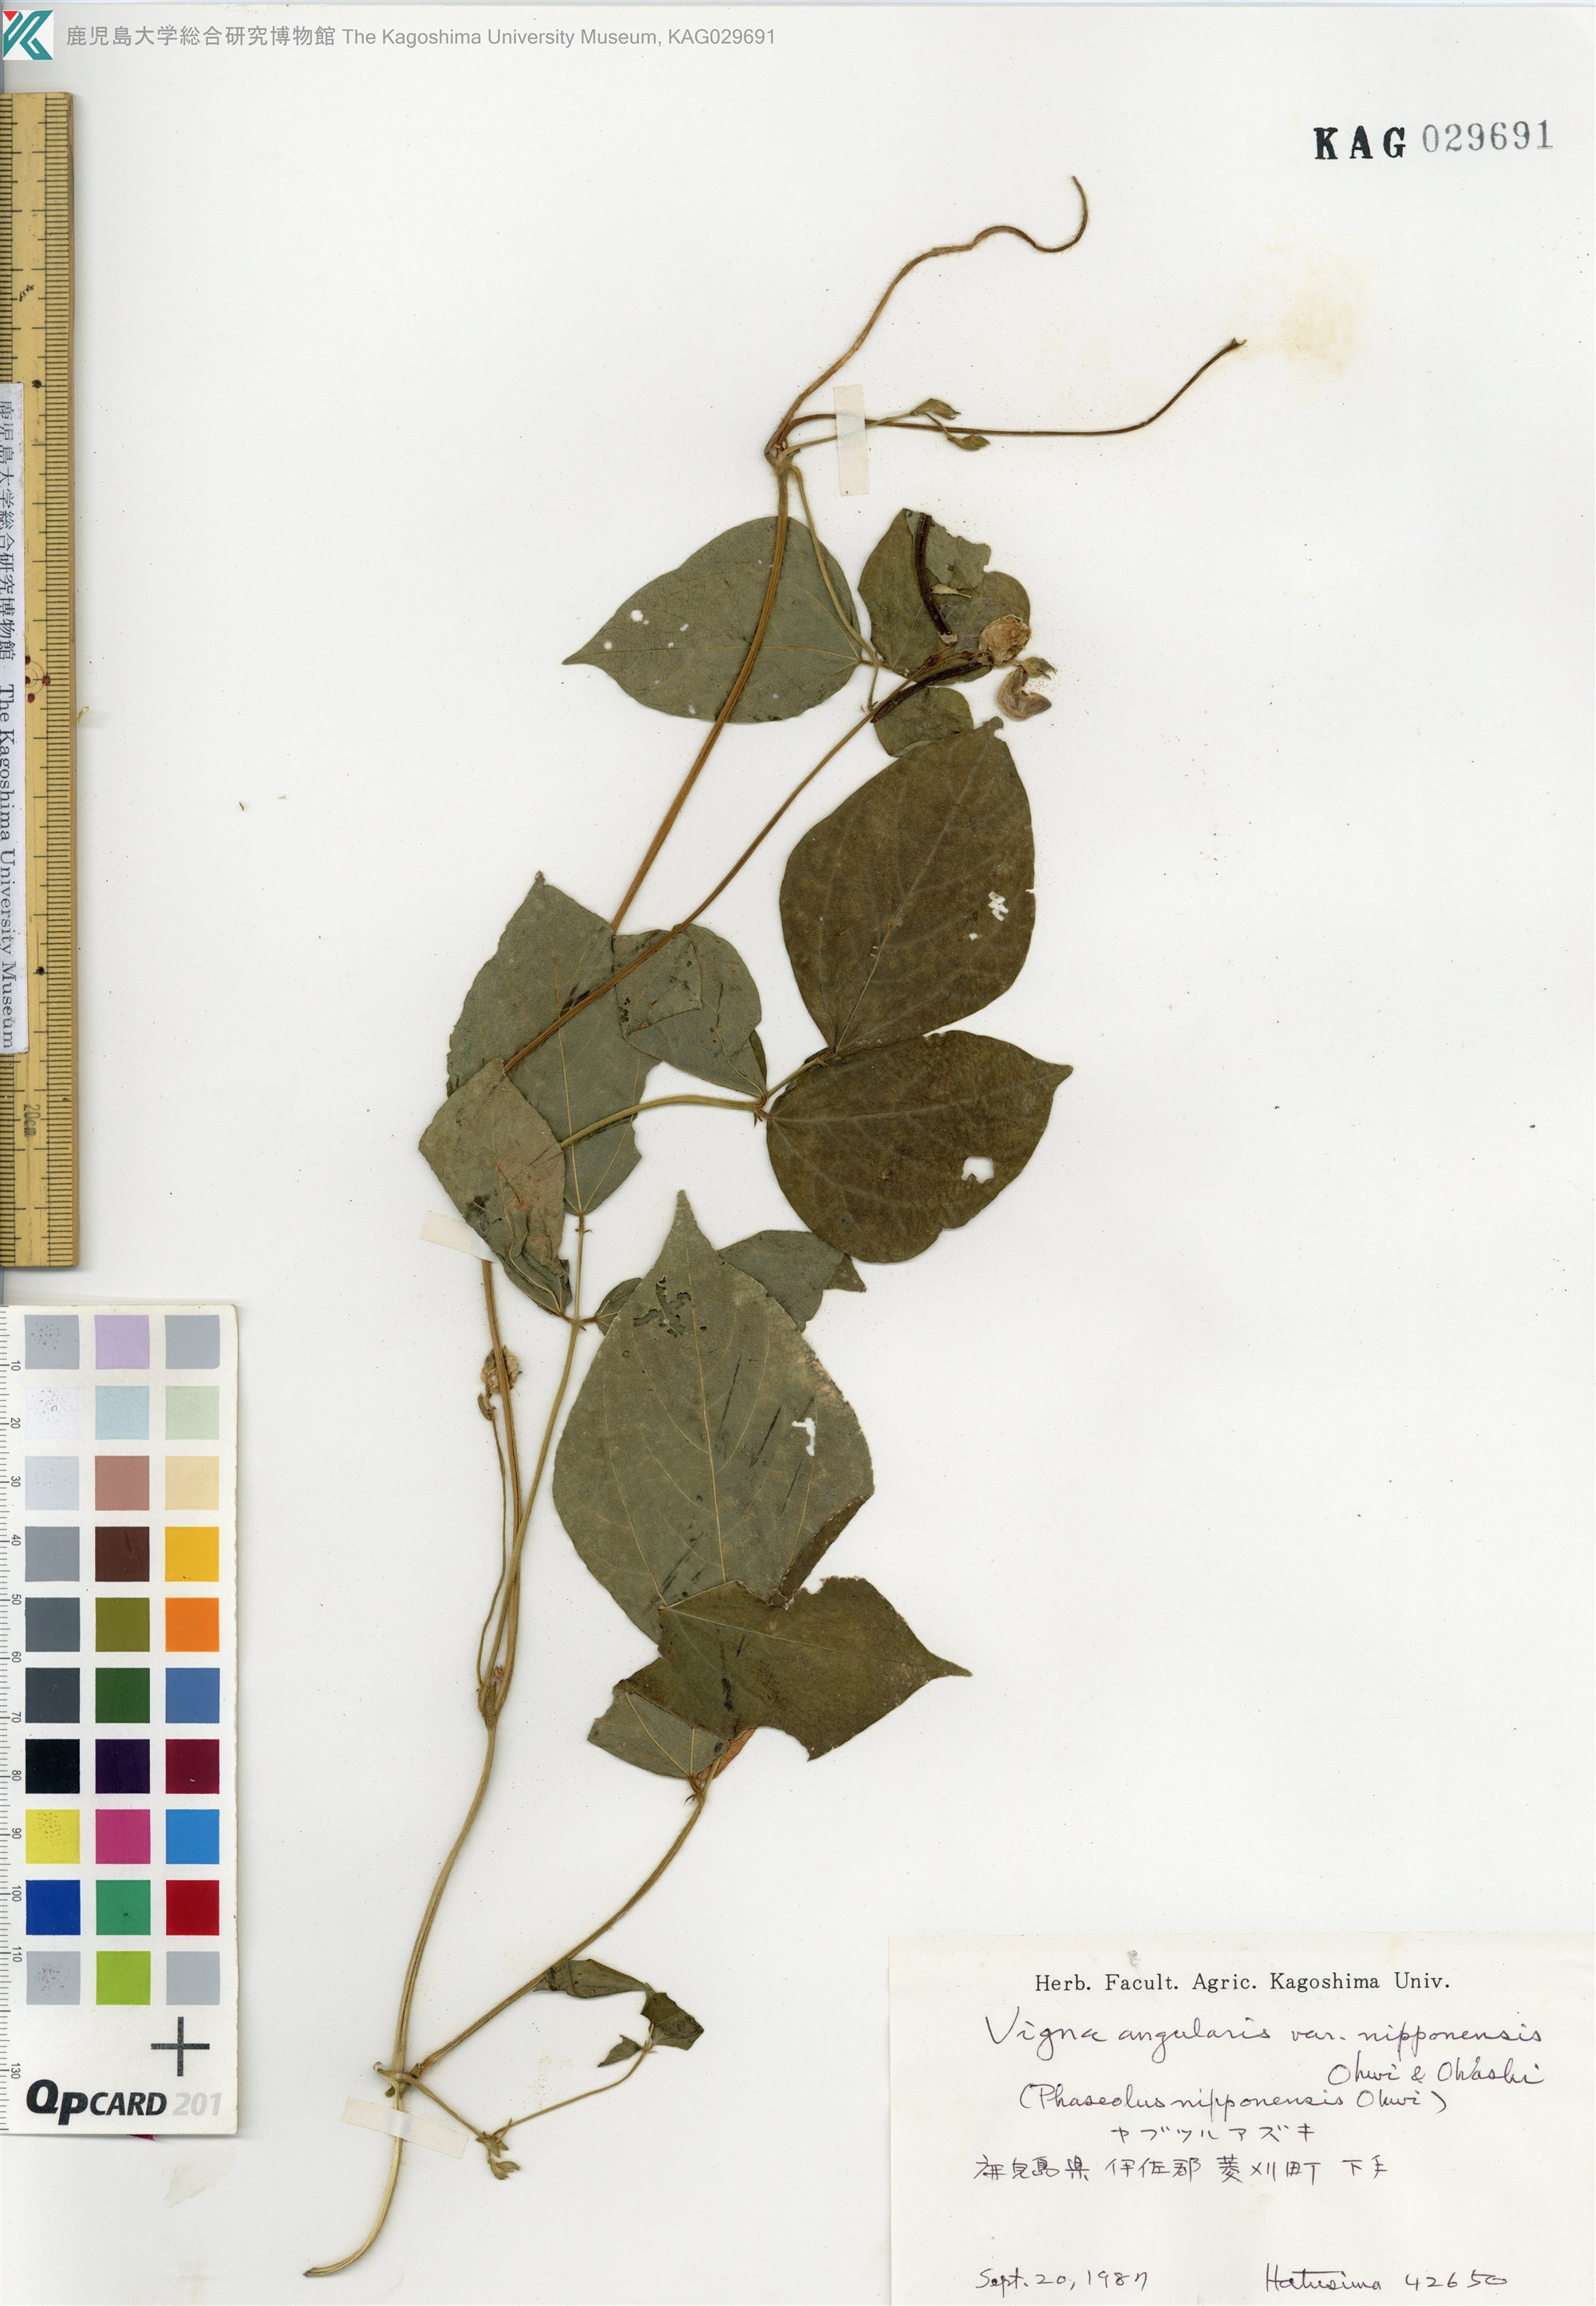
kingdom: Plantae
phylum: Tracheophyta
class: Magnoliopsida
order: Fabales
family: Fabaceae
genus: Vigna
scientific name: Vigna angularis
